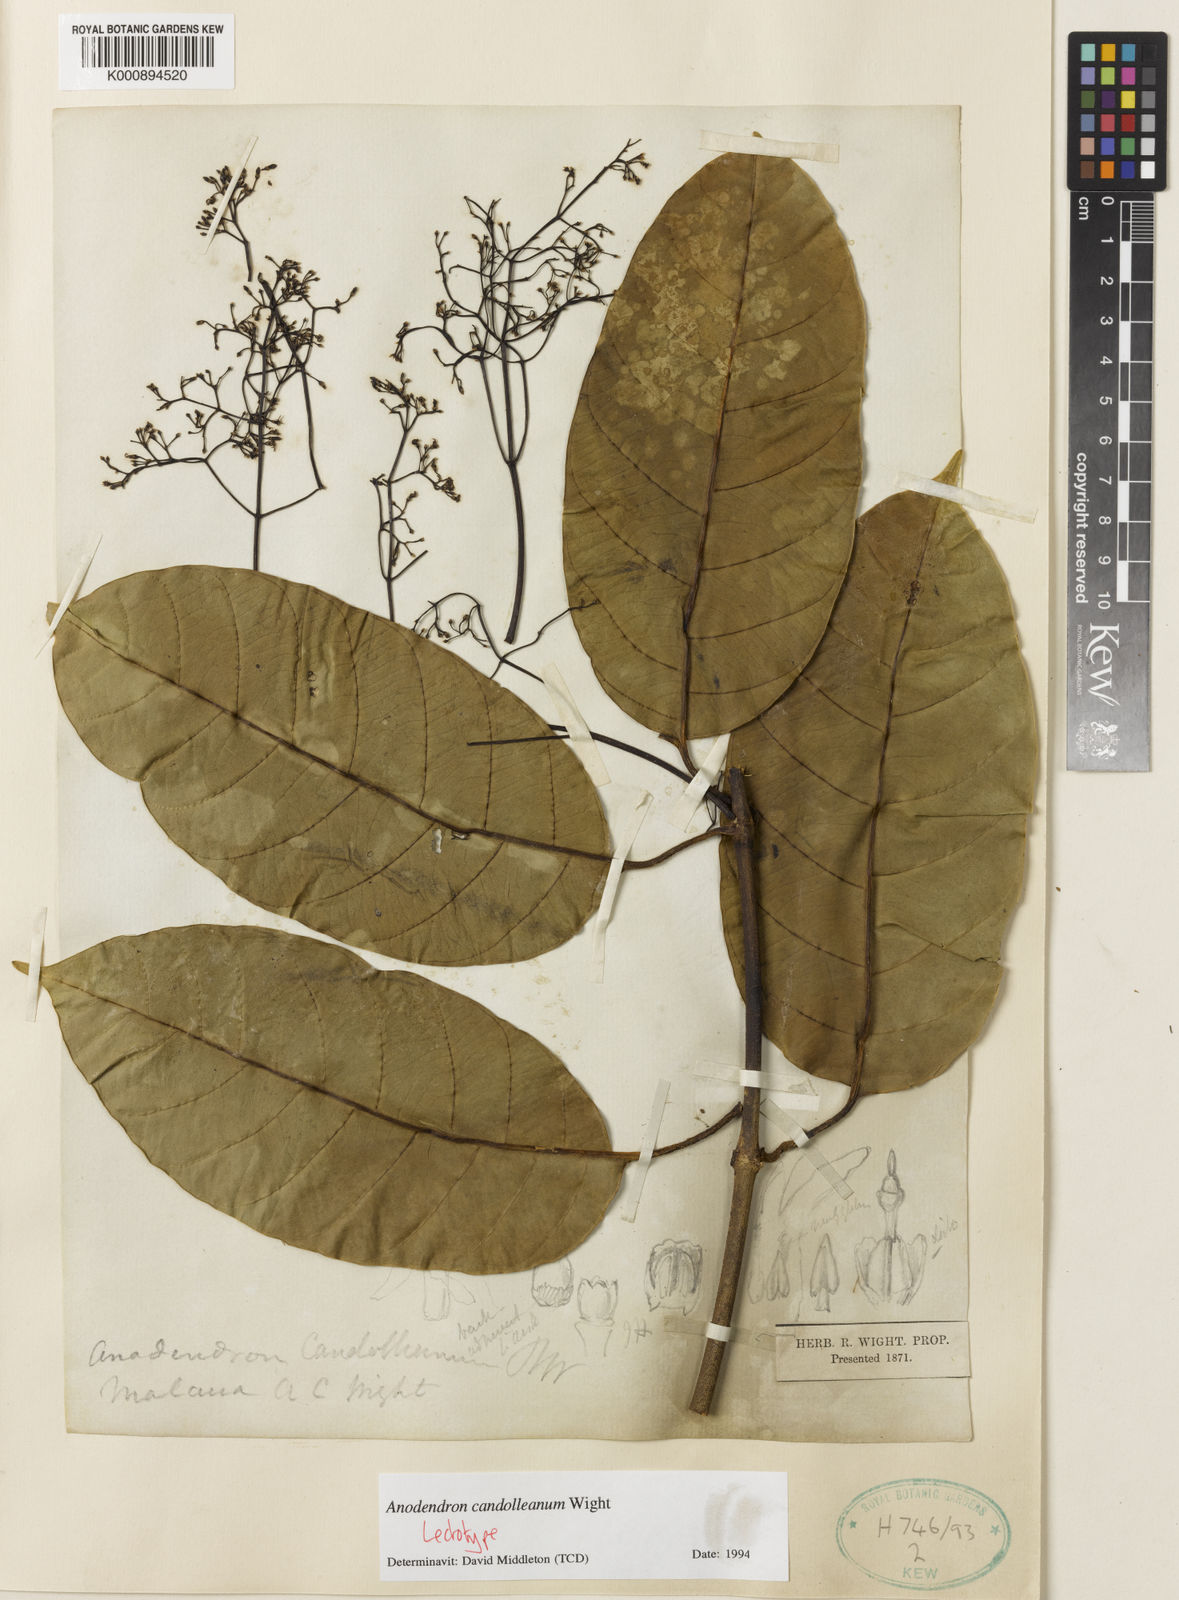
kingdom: Plantae
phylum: Tracheophyta
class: Magnoliopsida
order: Gentianales
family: Apocynaceae
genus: Anodendron
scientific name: Anodendron candolleanum
